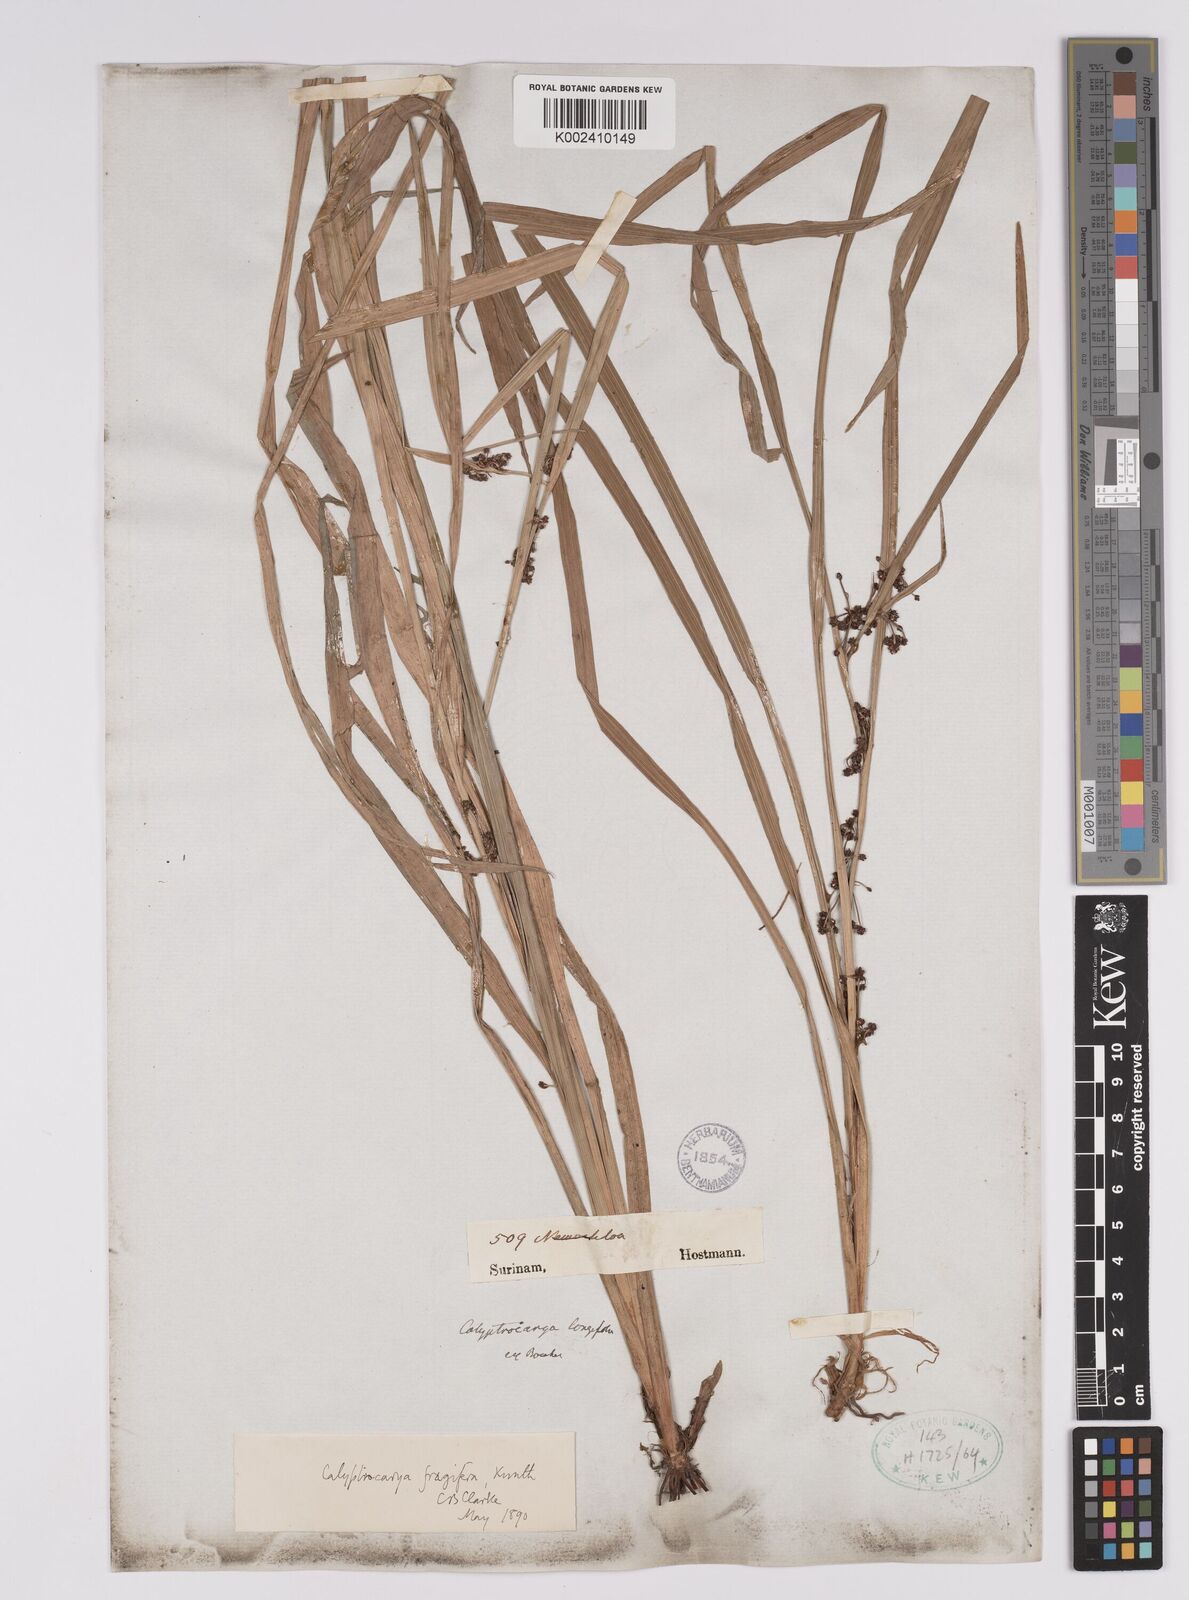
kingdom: Plantae
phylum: Tracheophyta
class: Liliopsida
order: Poales
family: Cyperaceae
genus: Calyptrocarya
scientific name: Calyptrocarya glomerulata
